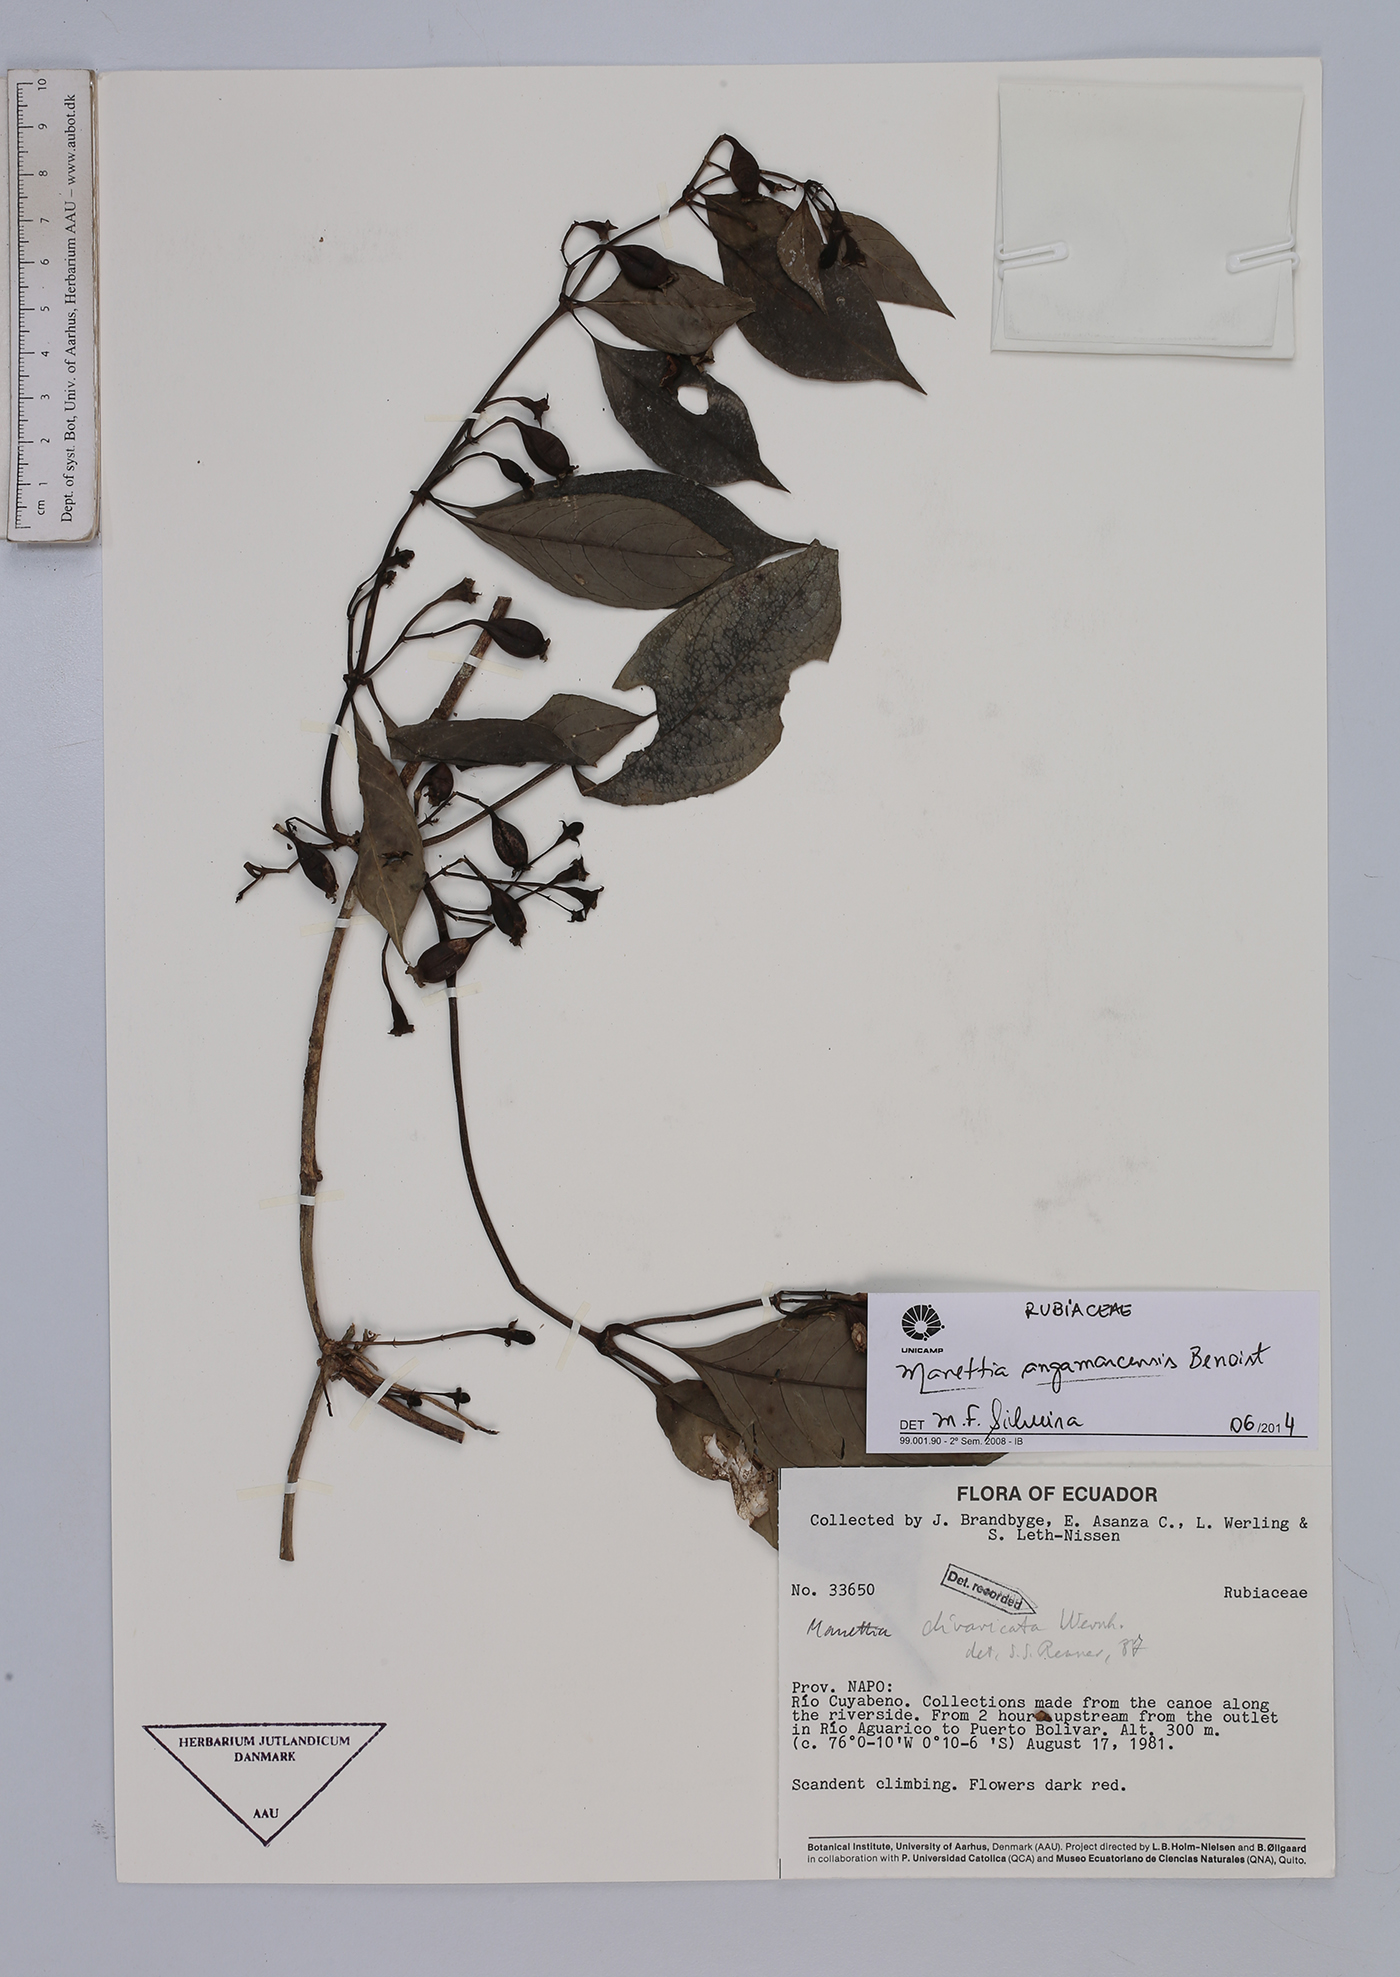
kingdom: Plantae
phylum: Tracheophyta
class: Magnoliopsida
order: Gentianales
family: Rubiaceae
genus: Manettia
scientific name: Manettia angamarcensis
